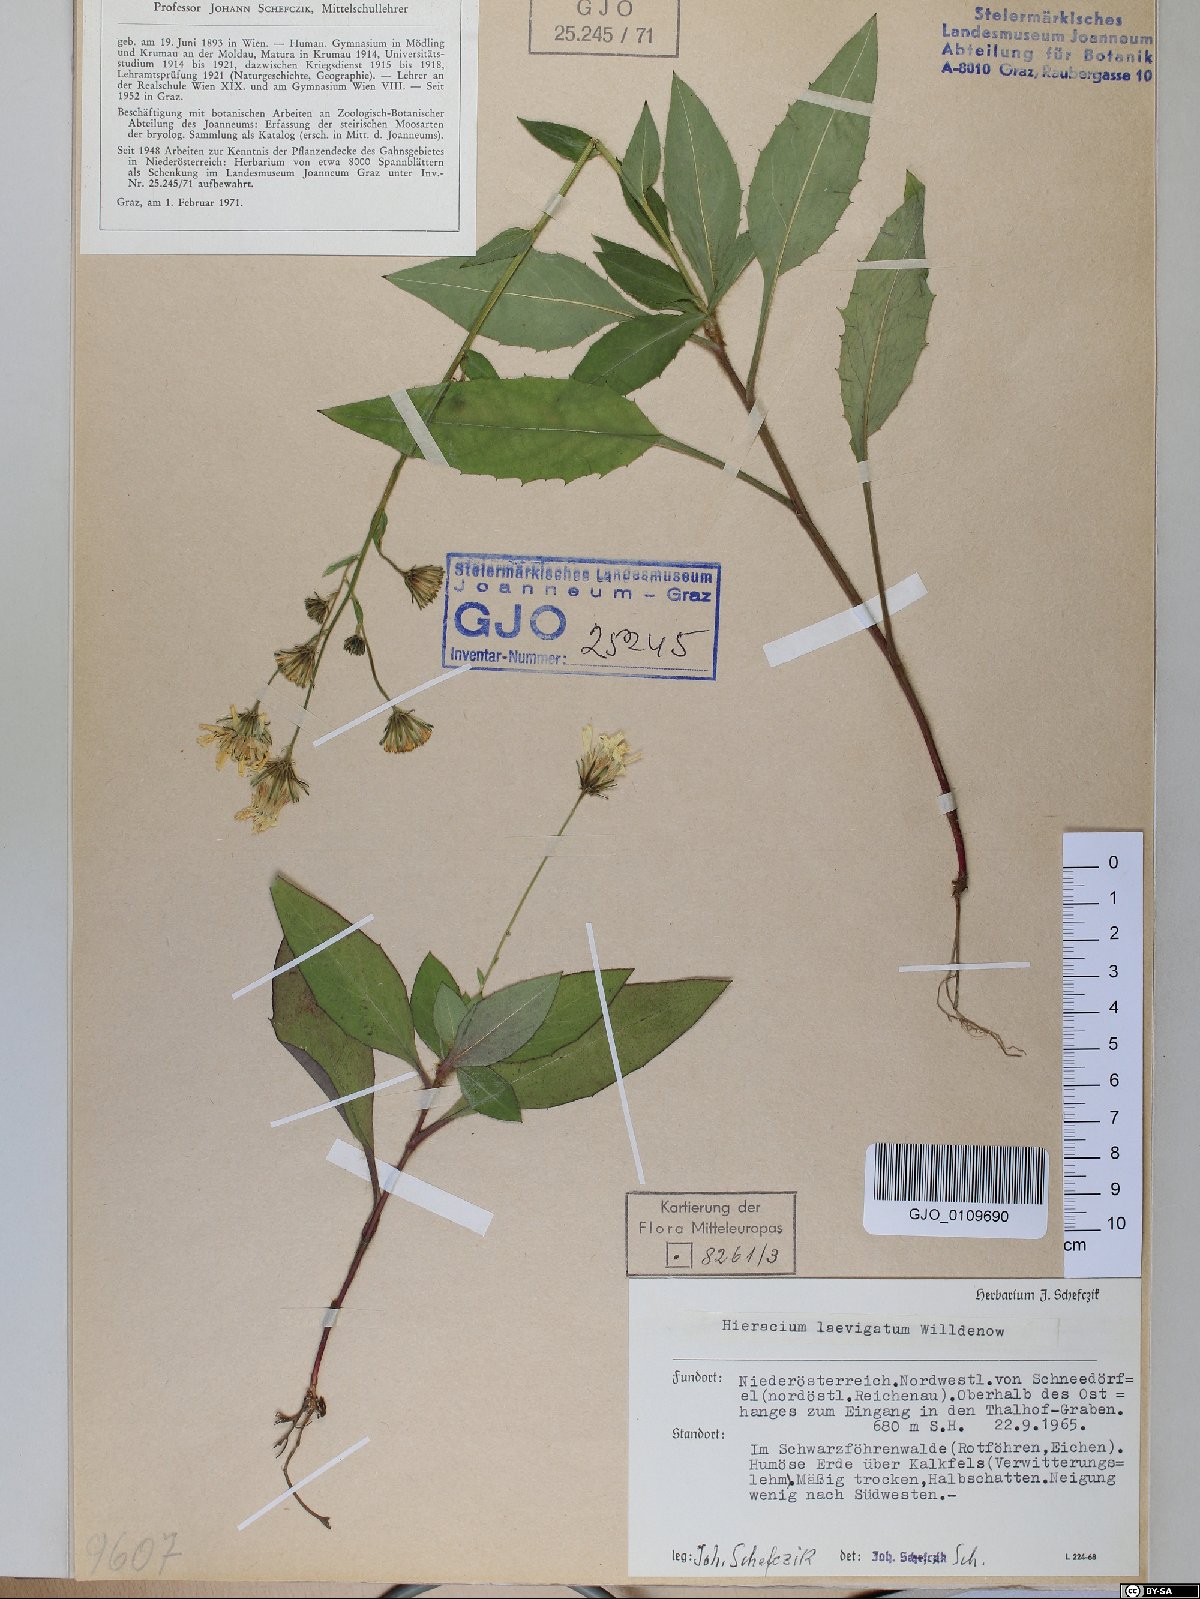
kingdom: Plantae
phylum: Tracheophyta
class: Magnoliopsida
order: Asterales
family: Asteraceae
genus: Hieracium
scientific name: Hieracium racemosum
